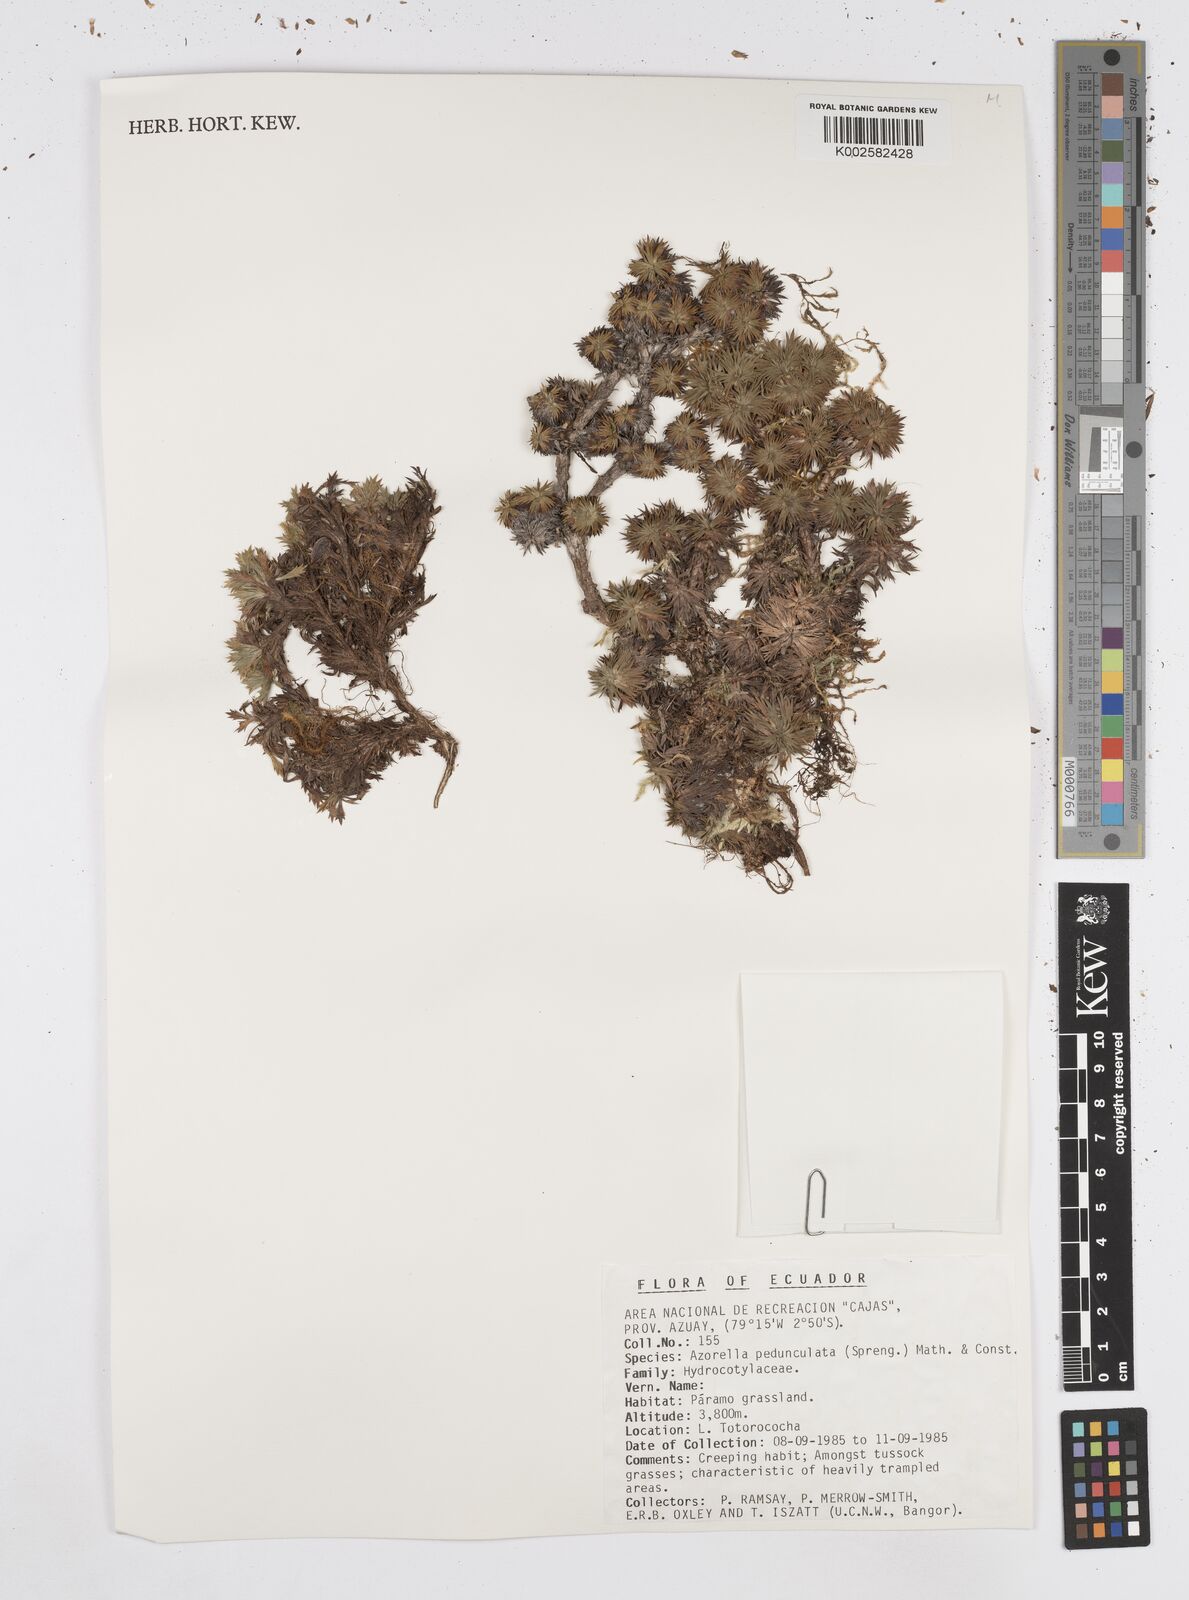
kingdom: Plantae
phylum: Tracheophyta
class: Magnoliopsida
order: Apiales
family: Apiaceae
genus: Azorella
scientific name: Azorella pedunculata
